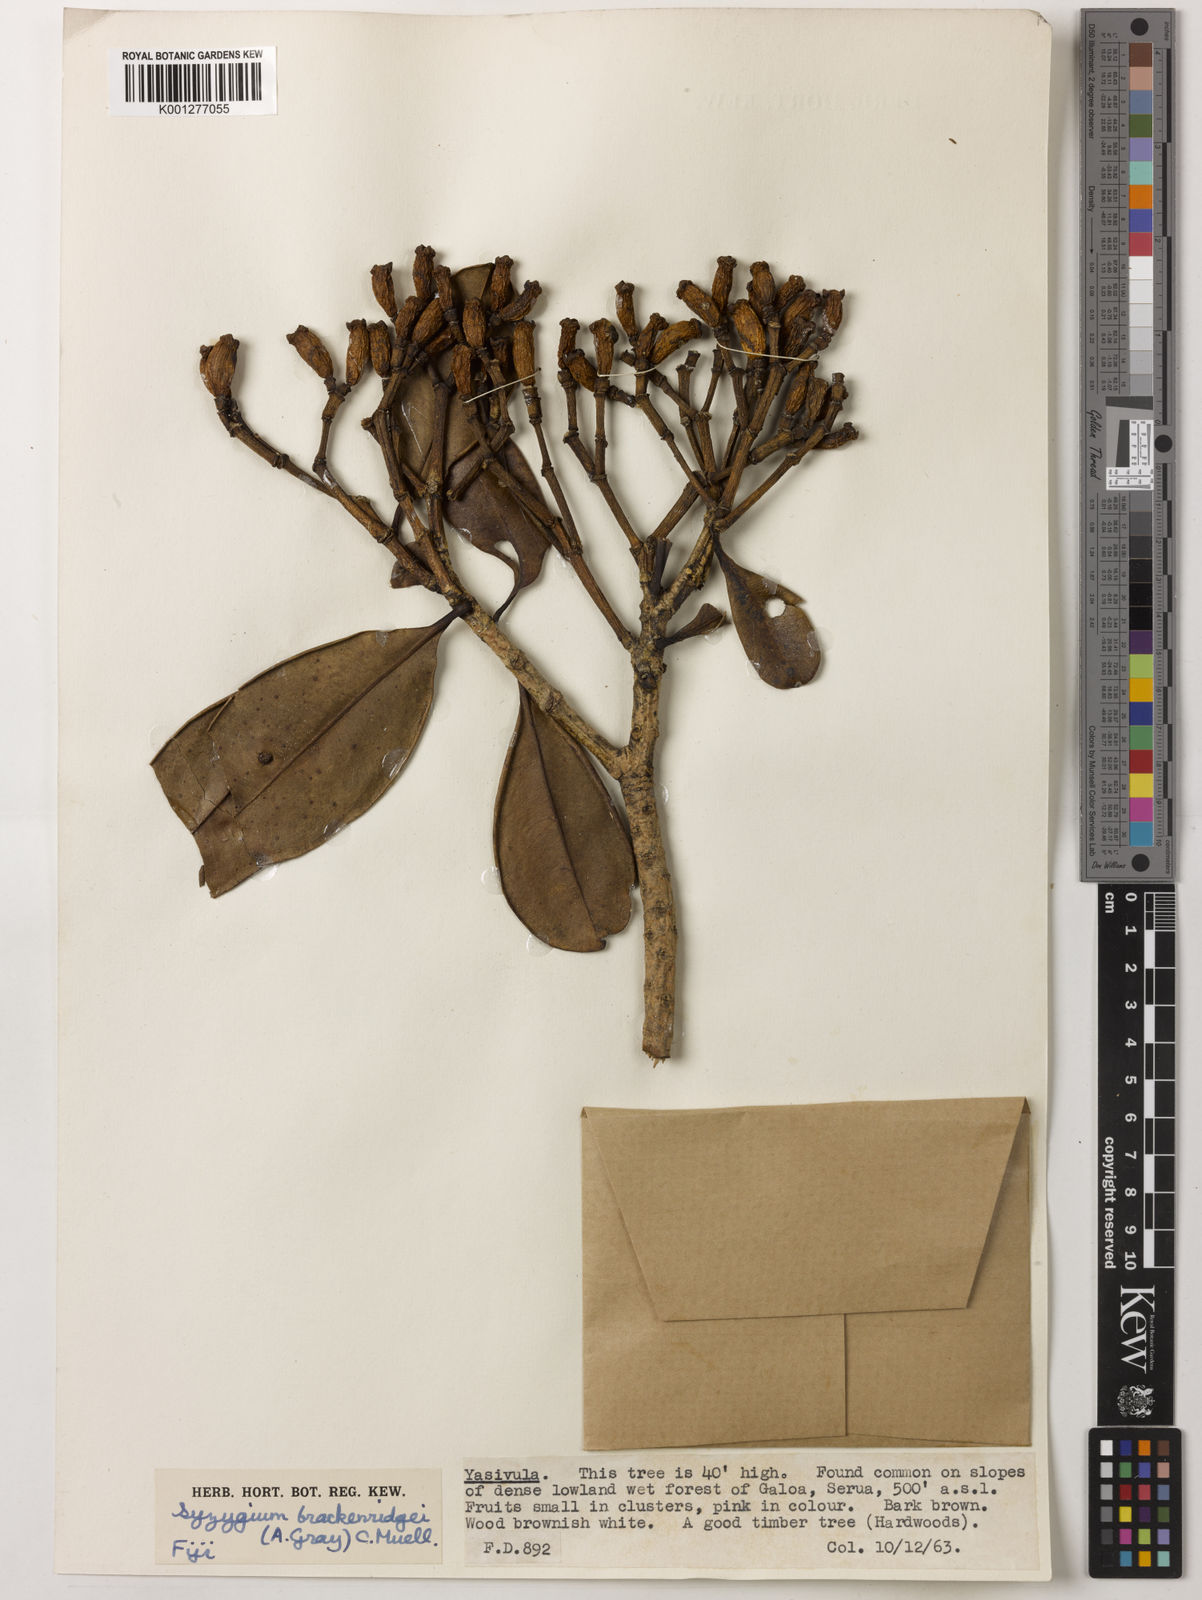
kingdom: Plantae
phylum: Tracheophyta
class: Magnoliopsida
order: Myrtales
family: Myrtaceae
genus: Syzygium
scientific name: Syzygium
